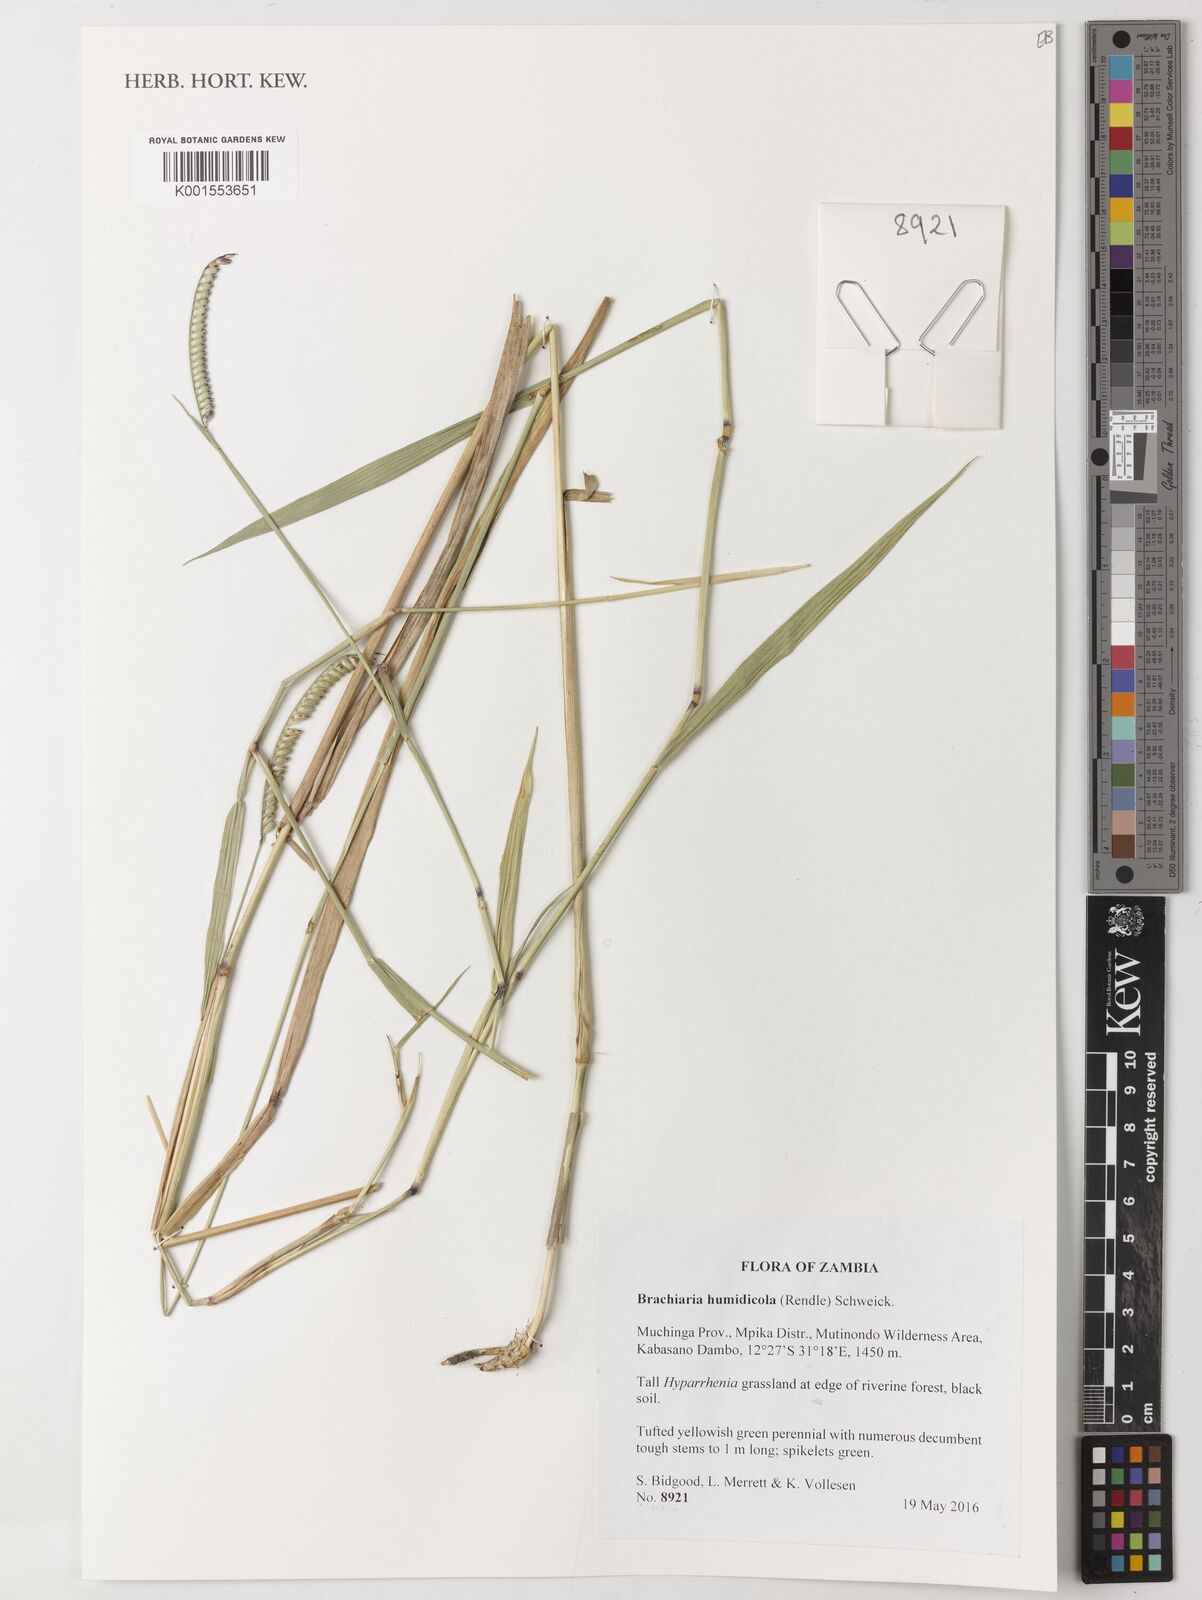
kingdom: Plantae
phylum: Tracheophyta
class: Liliopsida
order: Poales
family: Poaceae
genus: Urochloa
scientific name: Urochloa dictyoneura
